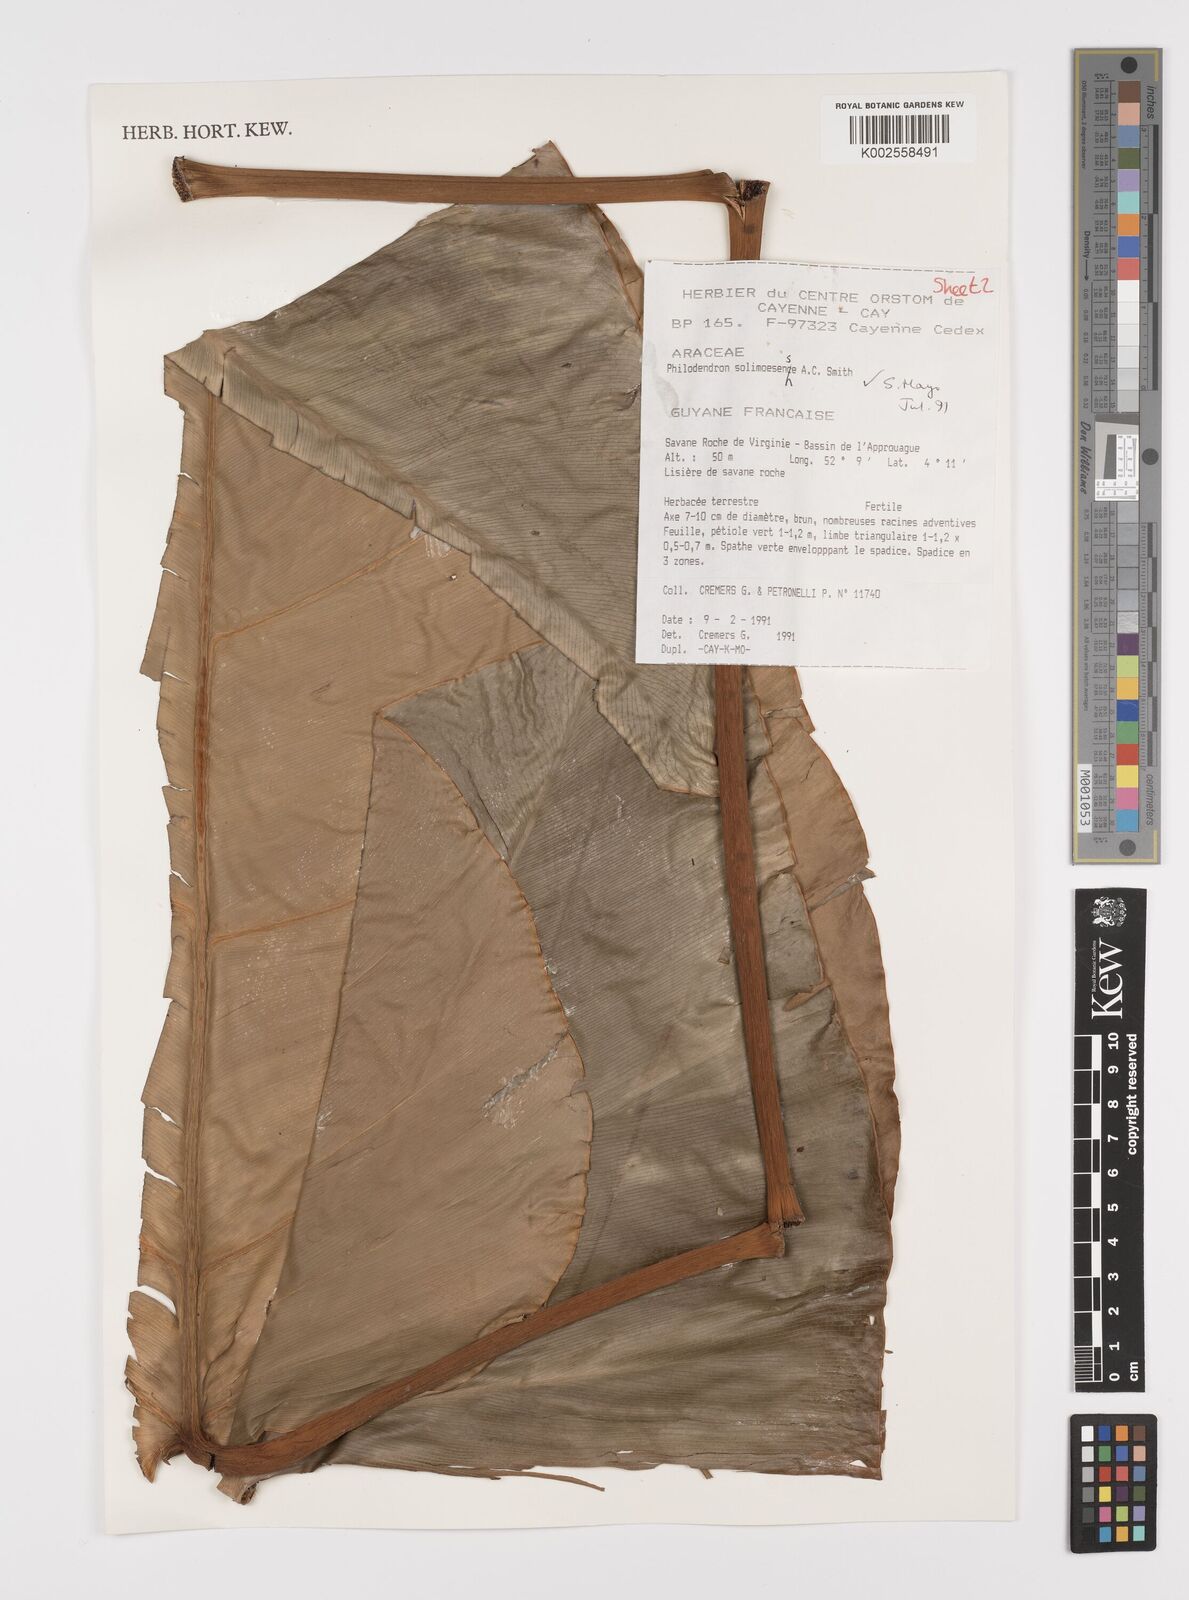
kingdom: Plantae
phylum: Tracheophyta
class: Liliopsida
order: Alismatales
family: Araceae
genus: Thaumatophyllum
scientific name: Thaumatophyllum solimoesense
